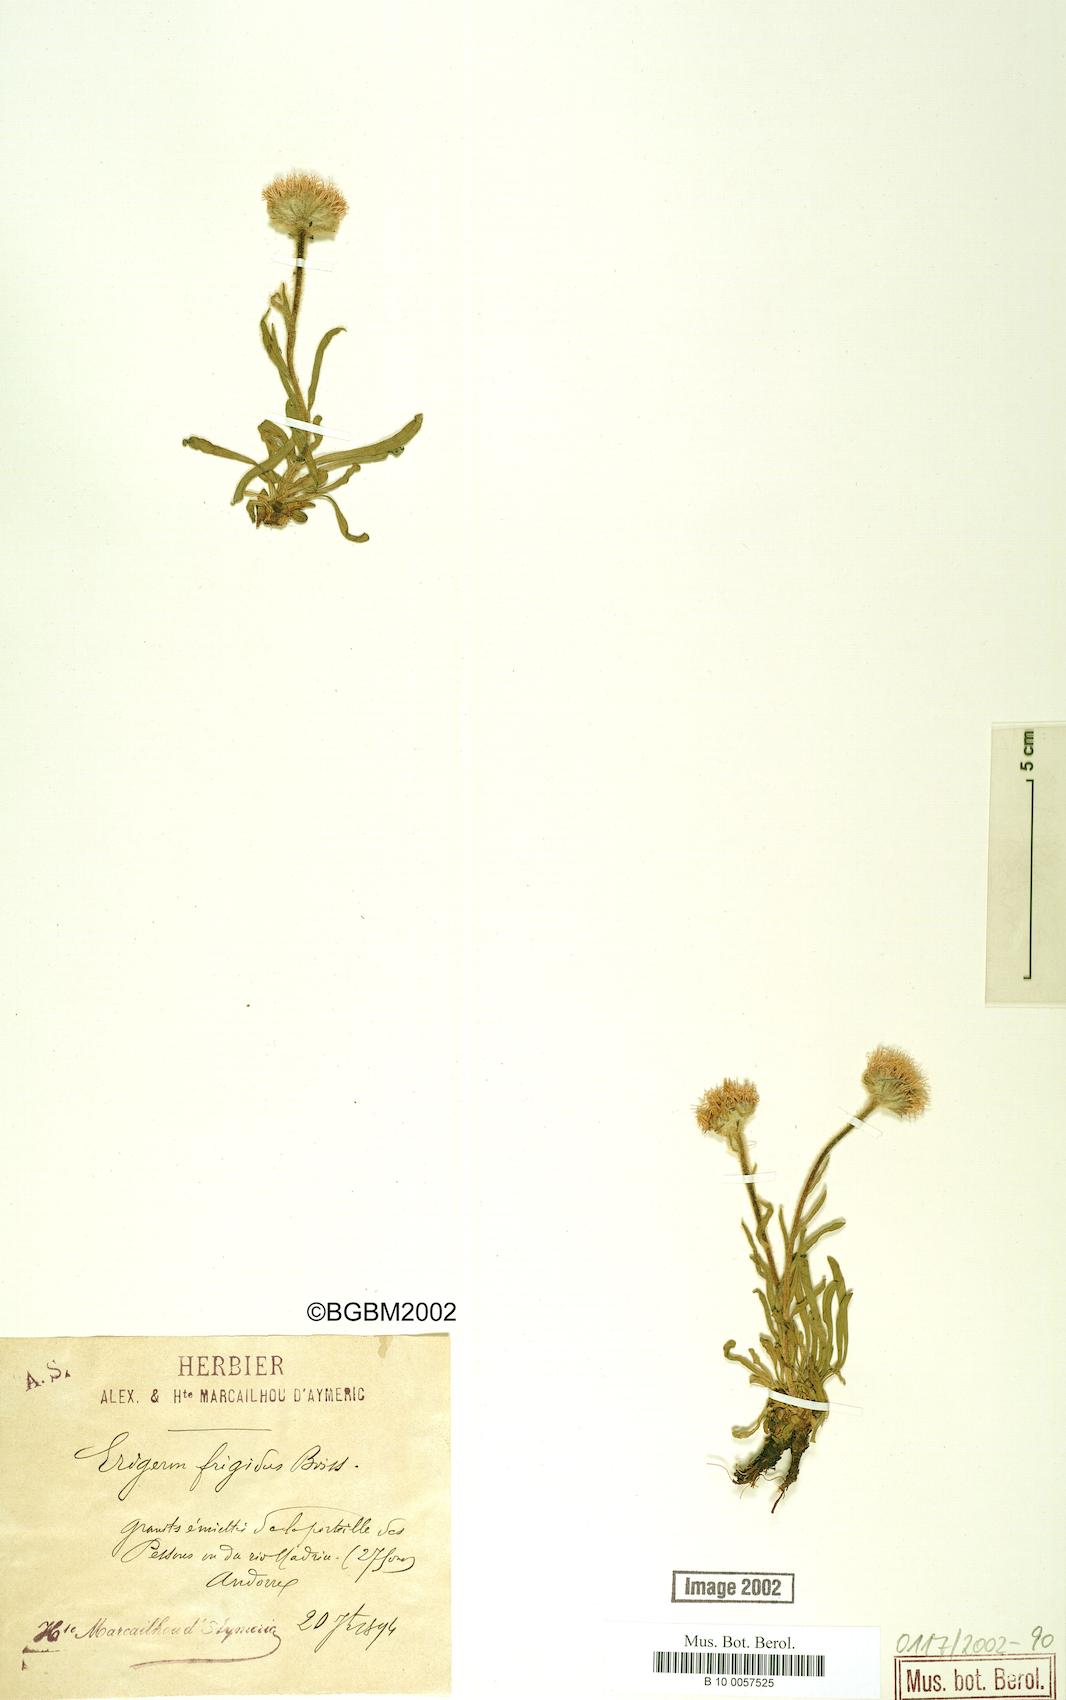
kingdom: Plantae
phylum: Tracheophyta
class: Magnoliopsida
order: Asterales
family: Asteraceae
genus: Erigeron
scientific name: Erigeron aragonensis
